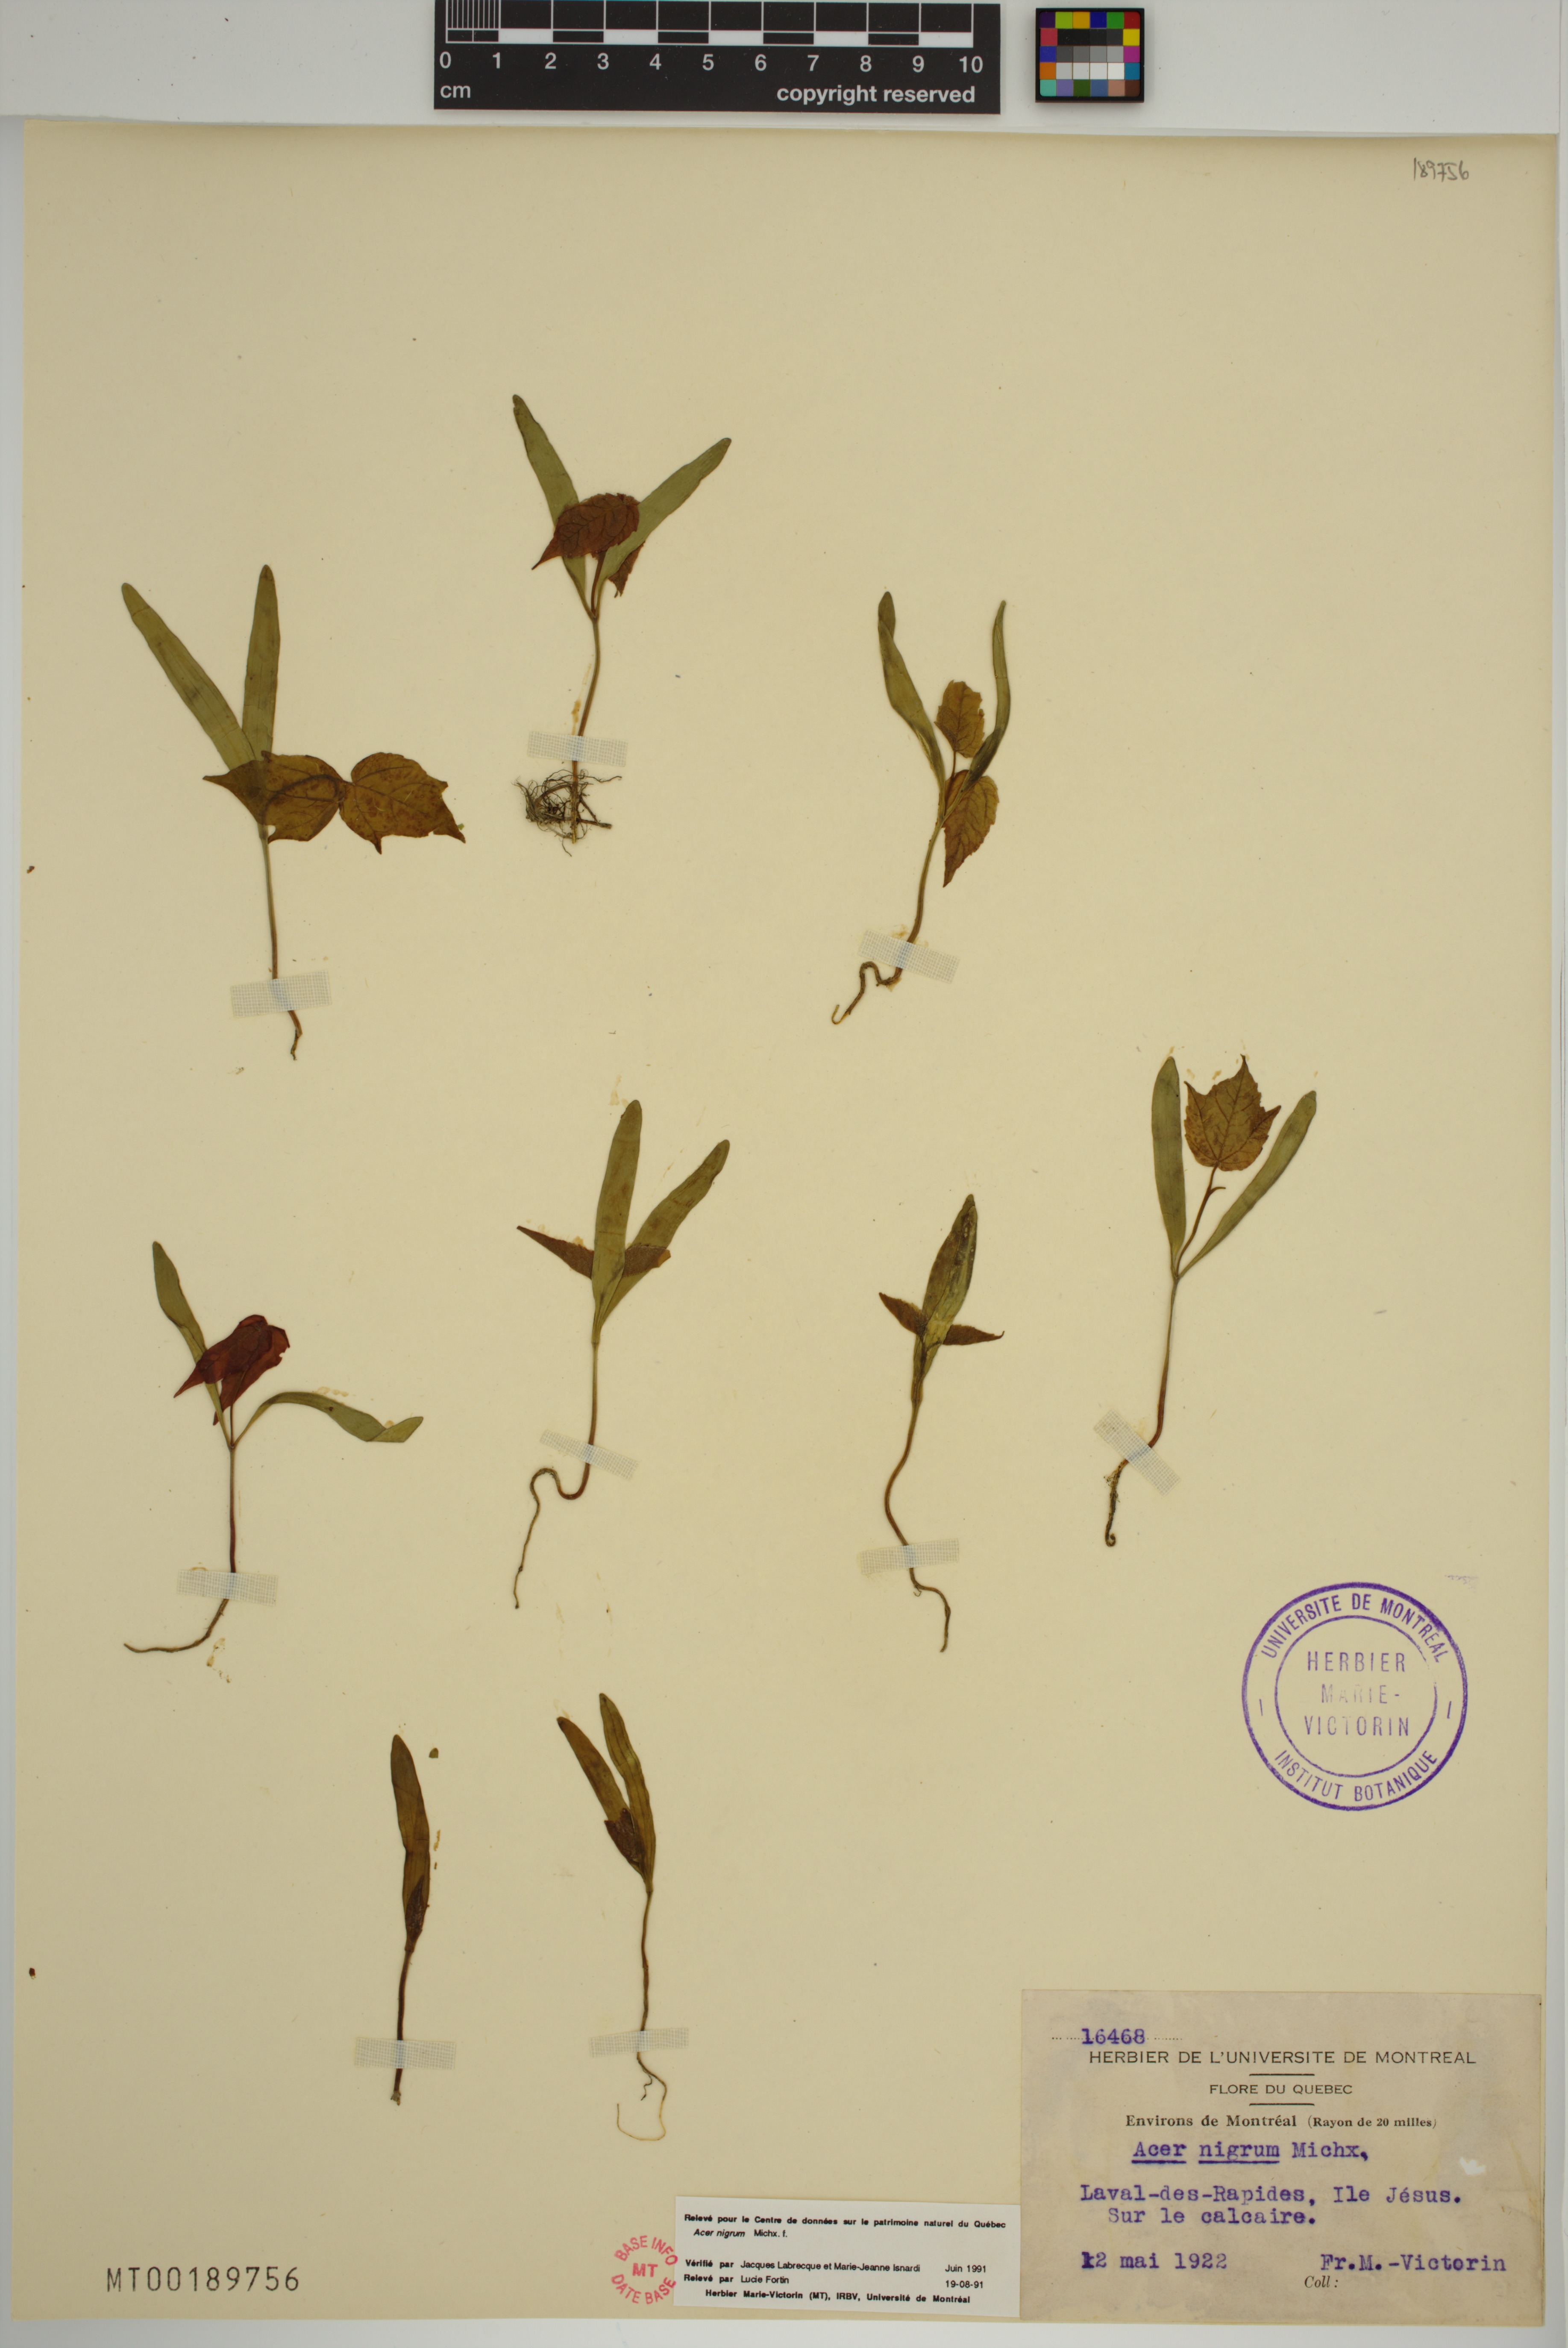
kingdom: Plantae
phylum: Tracheophyta
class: Magnoliopsida
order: Sapindales
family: Sapindaceae
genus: Acer
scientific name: Acer nigrum
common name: Black maple
